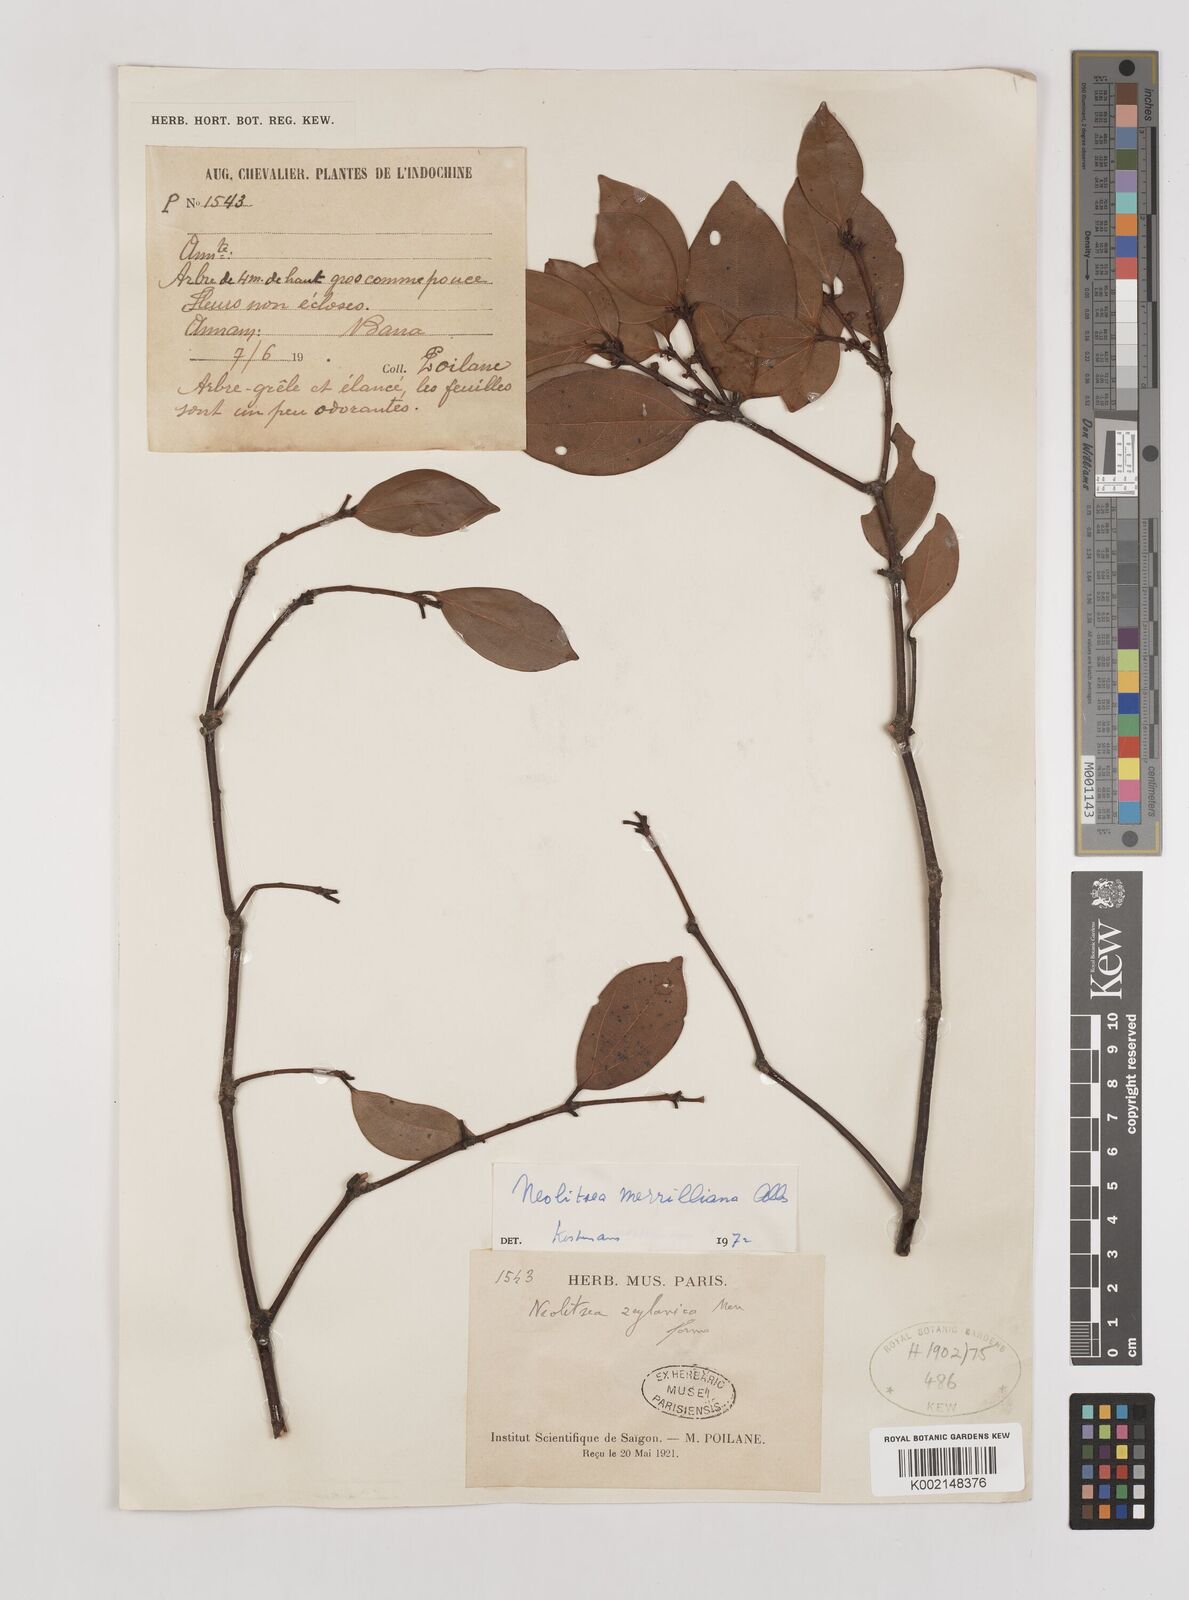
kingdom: Plantae
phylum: Tracheophyta
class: Magnoliopsida
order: Laurales
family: Lauraceae
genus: Neolitsea
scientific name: Neolitsea buisanensis
